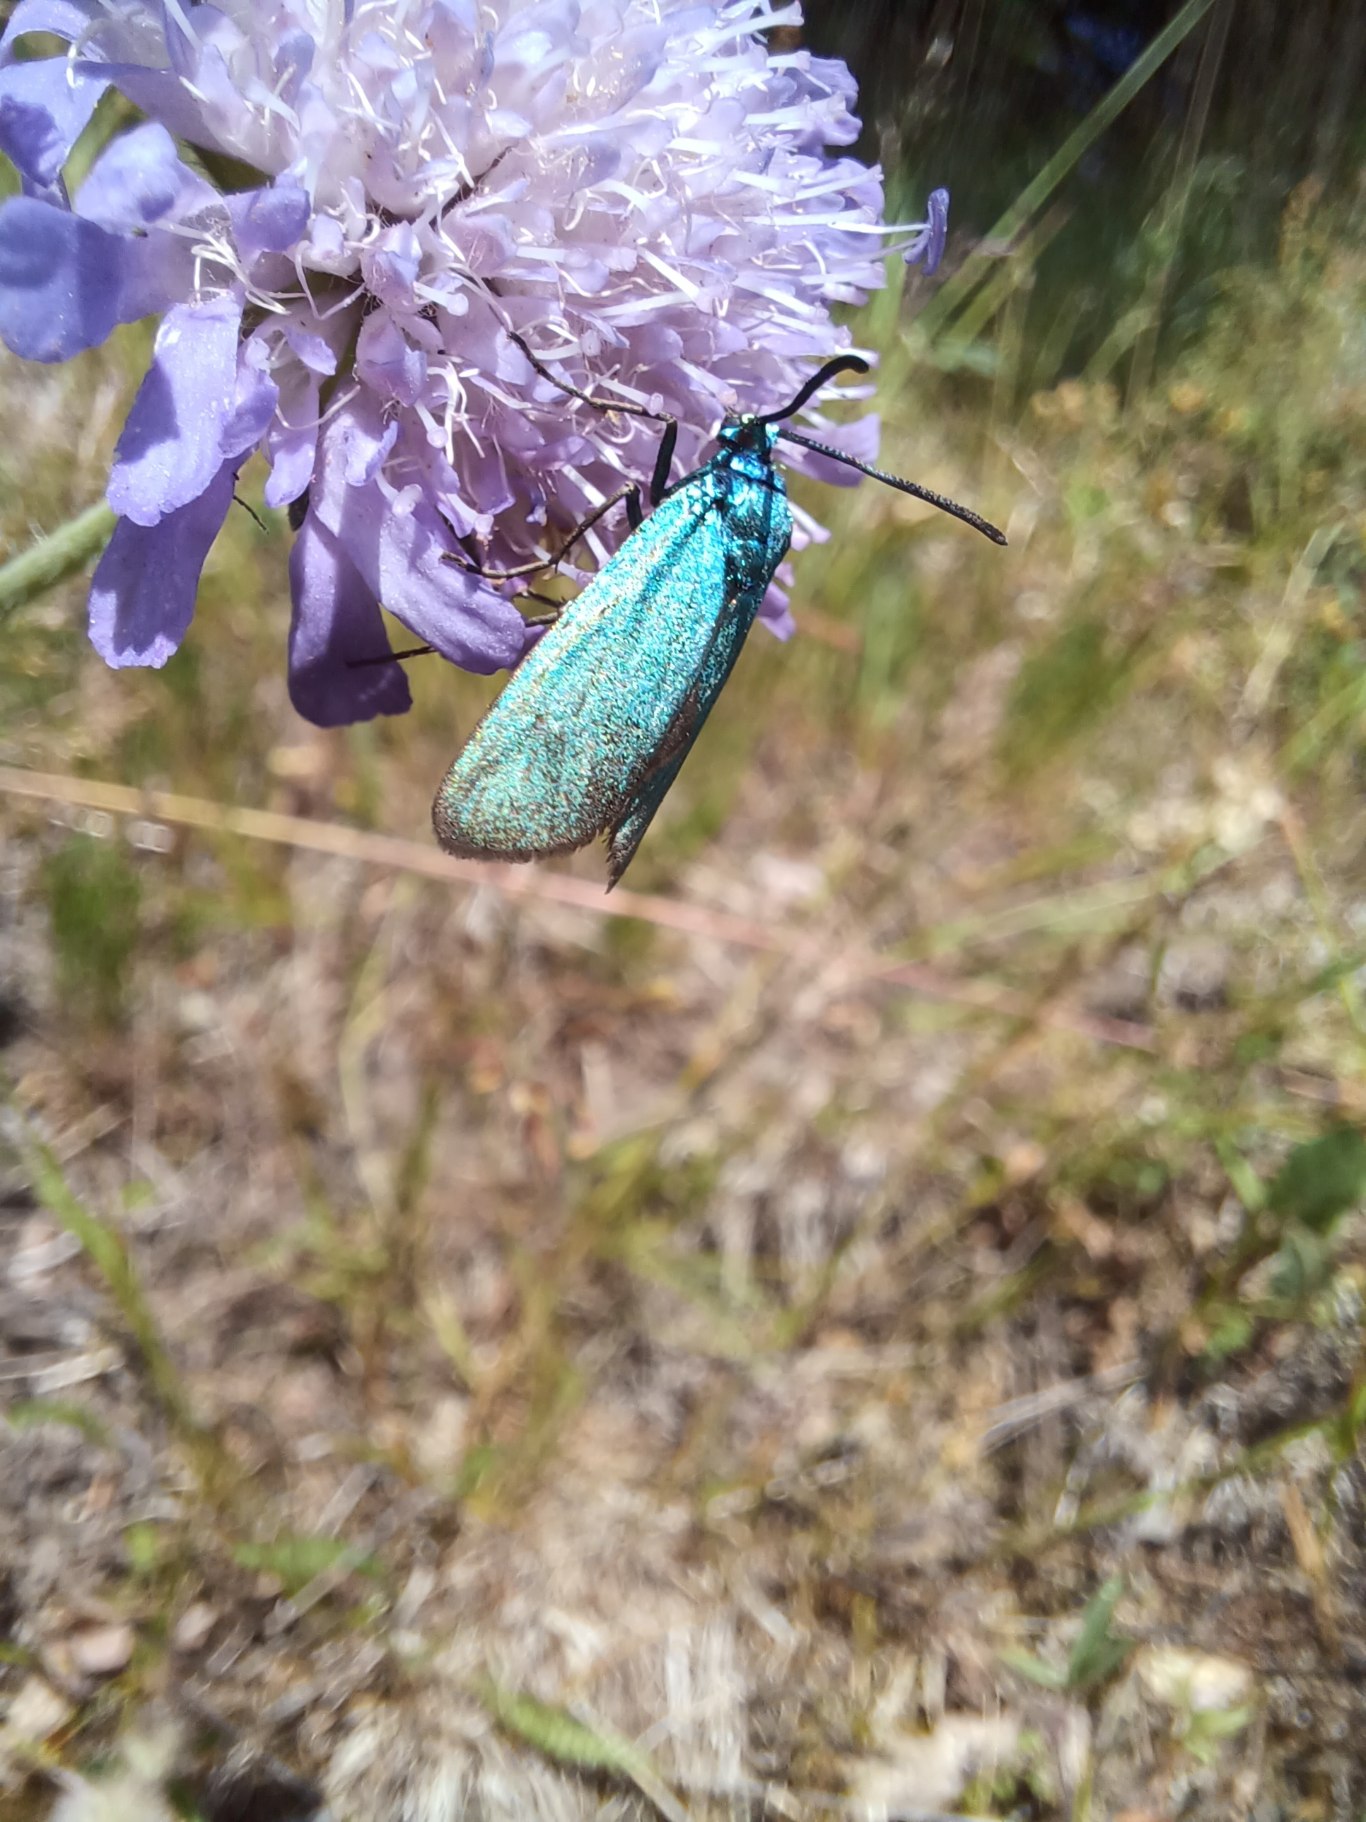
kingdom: Animalia
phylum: Arthropoda
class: Insecta
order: Lepidoptera
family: Zygaenidae
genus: Adscita
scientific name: Adscita statices
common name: Metalvinge
